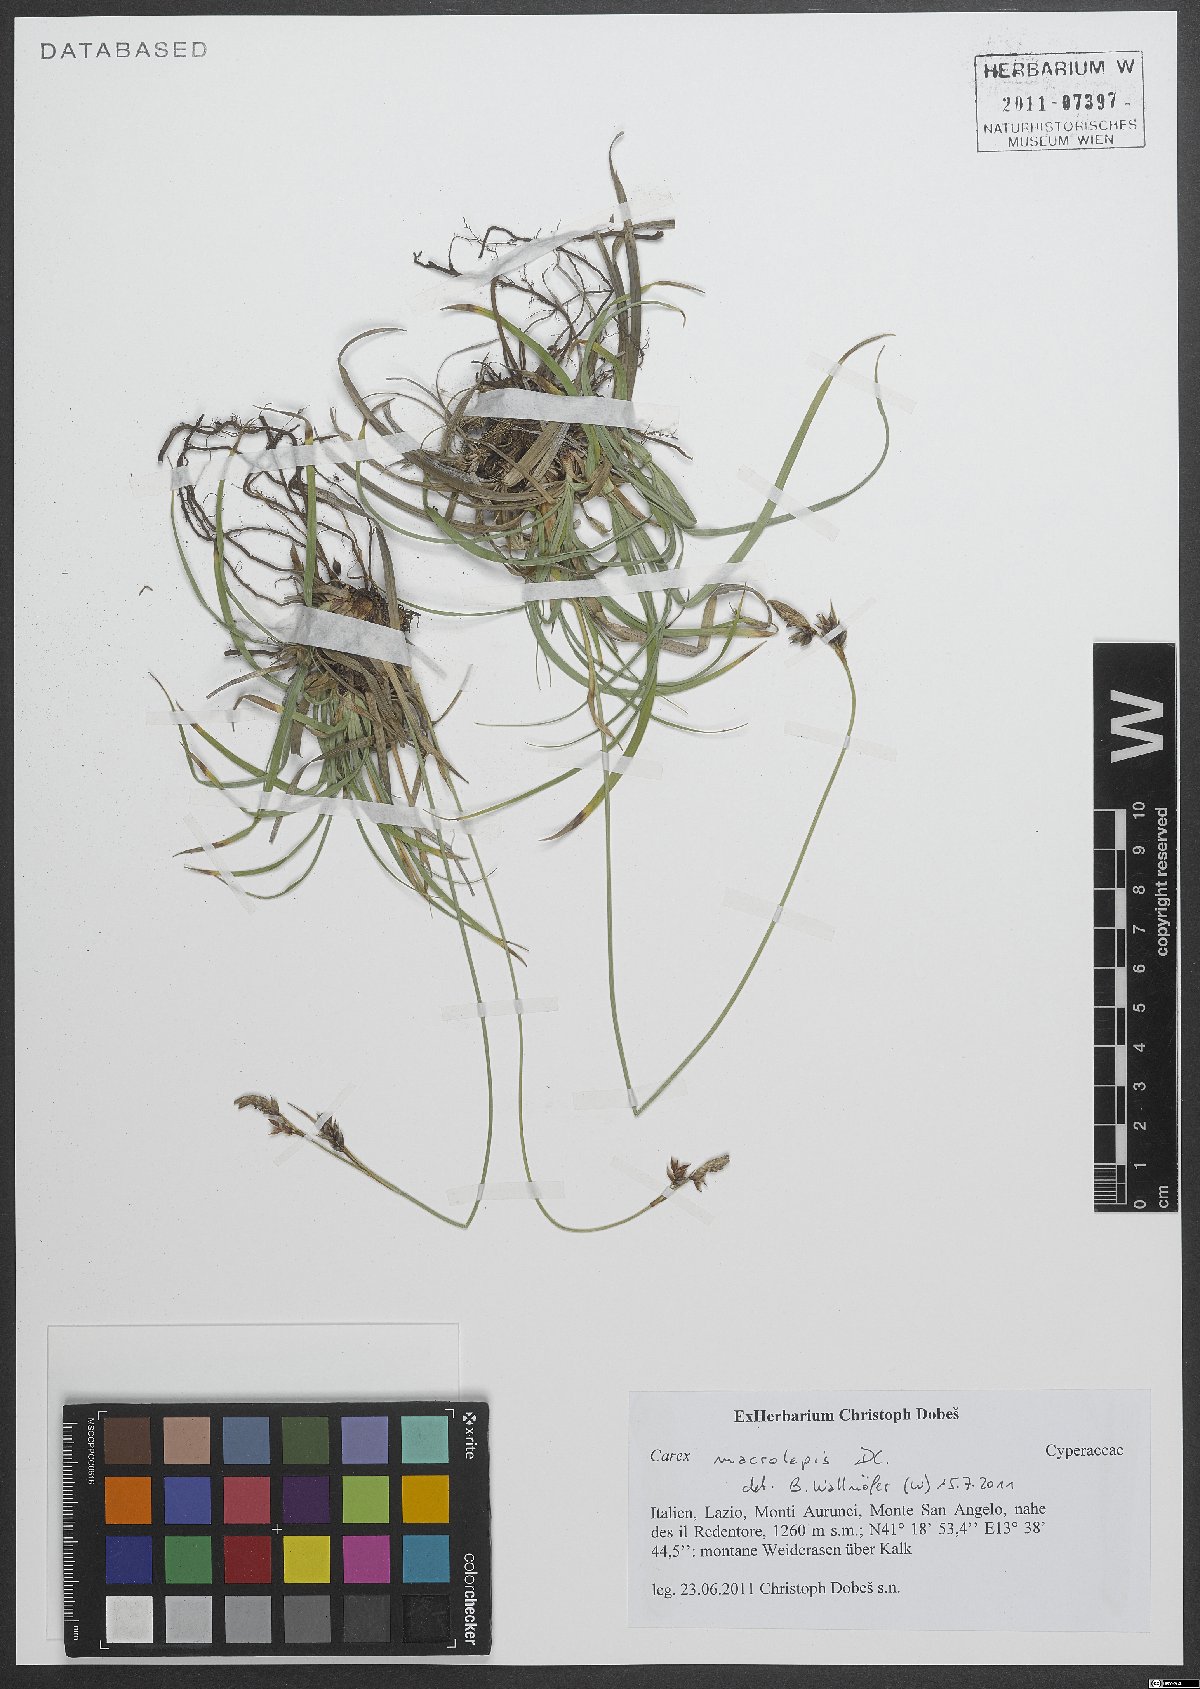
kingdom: Plantae
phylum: Tracheophyta
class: Liliopsida
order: Poales
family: Cyperaceae
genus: Carex
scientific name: Carex macrolepis
